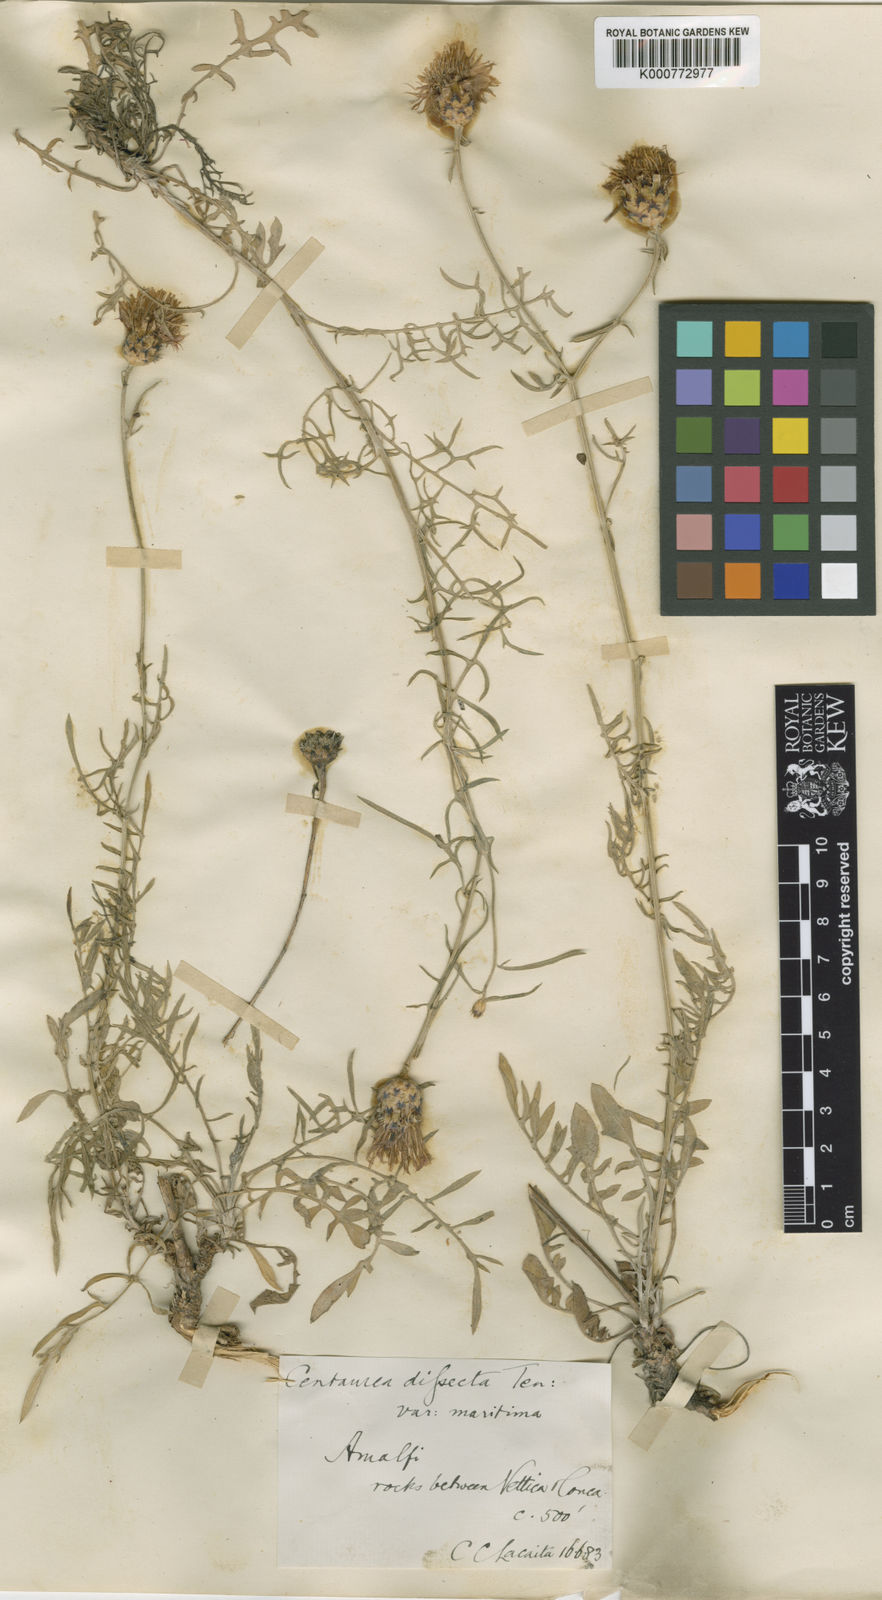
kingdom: Plantae
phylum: Tracheophyta
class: Magnoliopsida
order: Asterales
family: Asteraceae
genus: Centaurea
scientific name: Centaurea parlatoris
